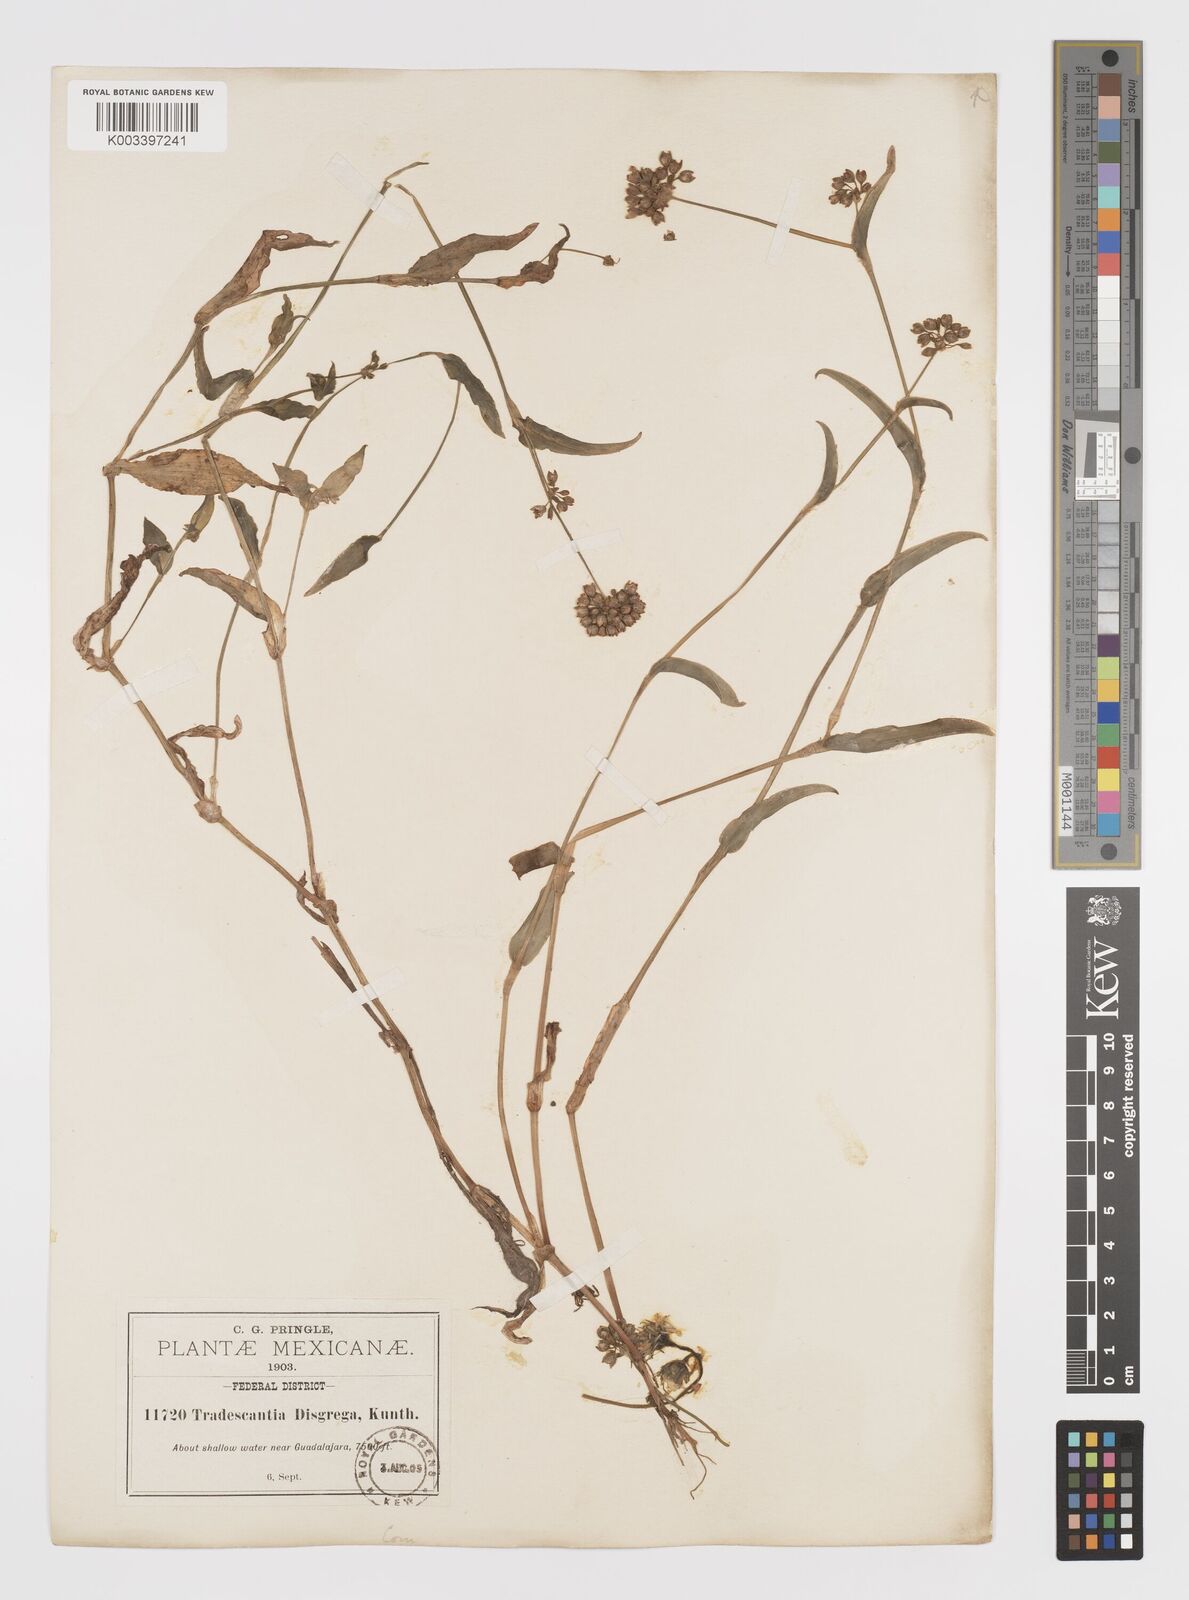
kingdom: Plantae
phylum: Tracheophyta
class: Liliopsida
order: Commelinales
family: Commelinaceae
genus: Callisia
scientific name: Callisia disgrega
